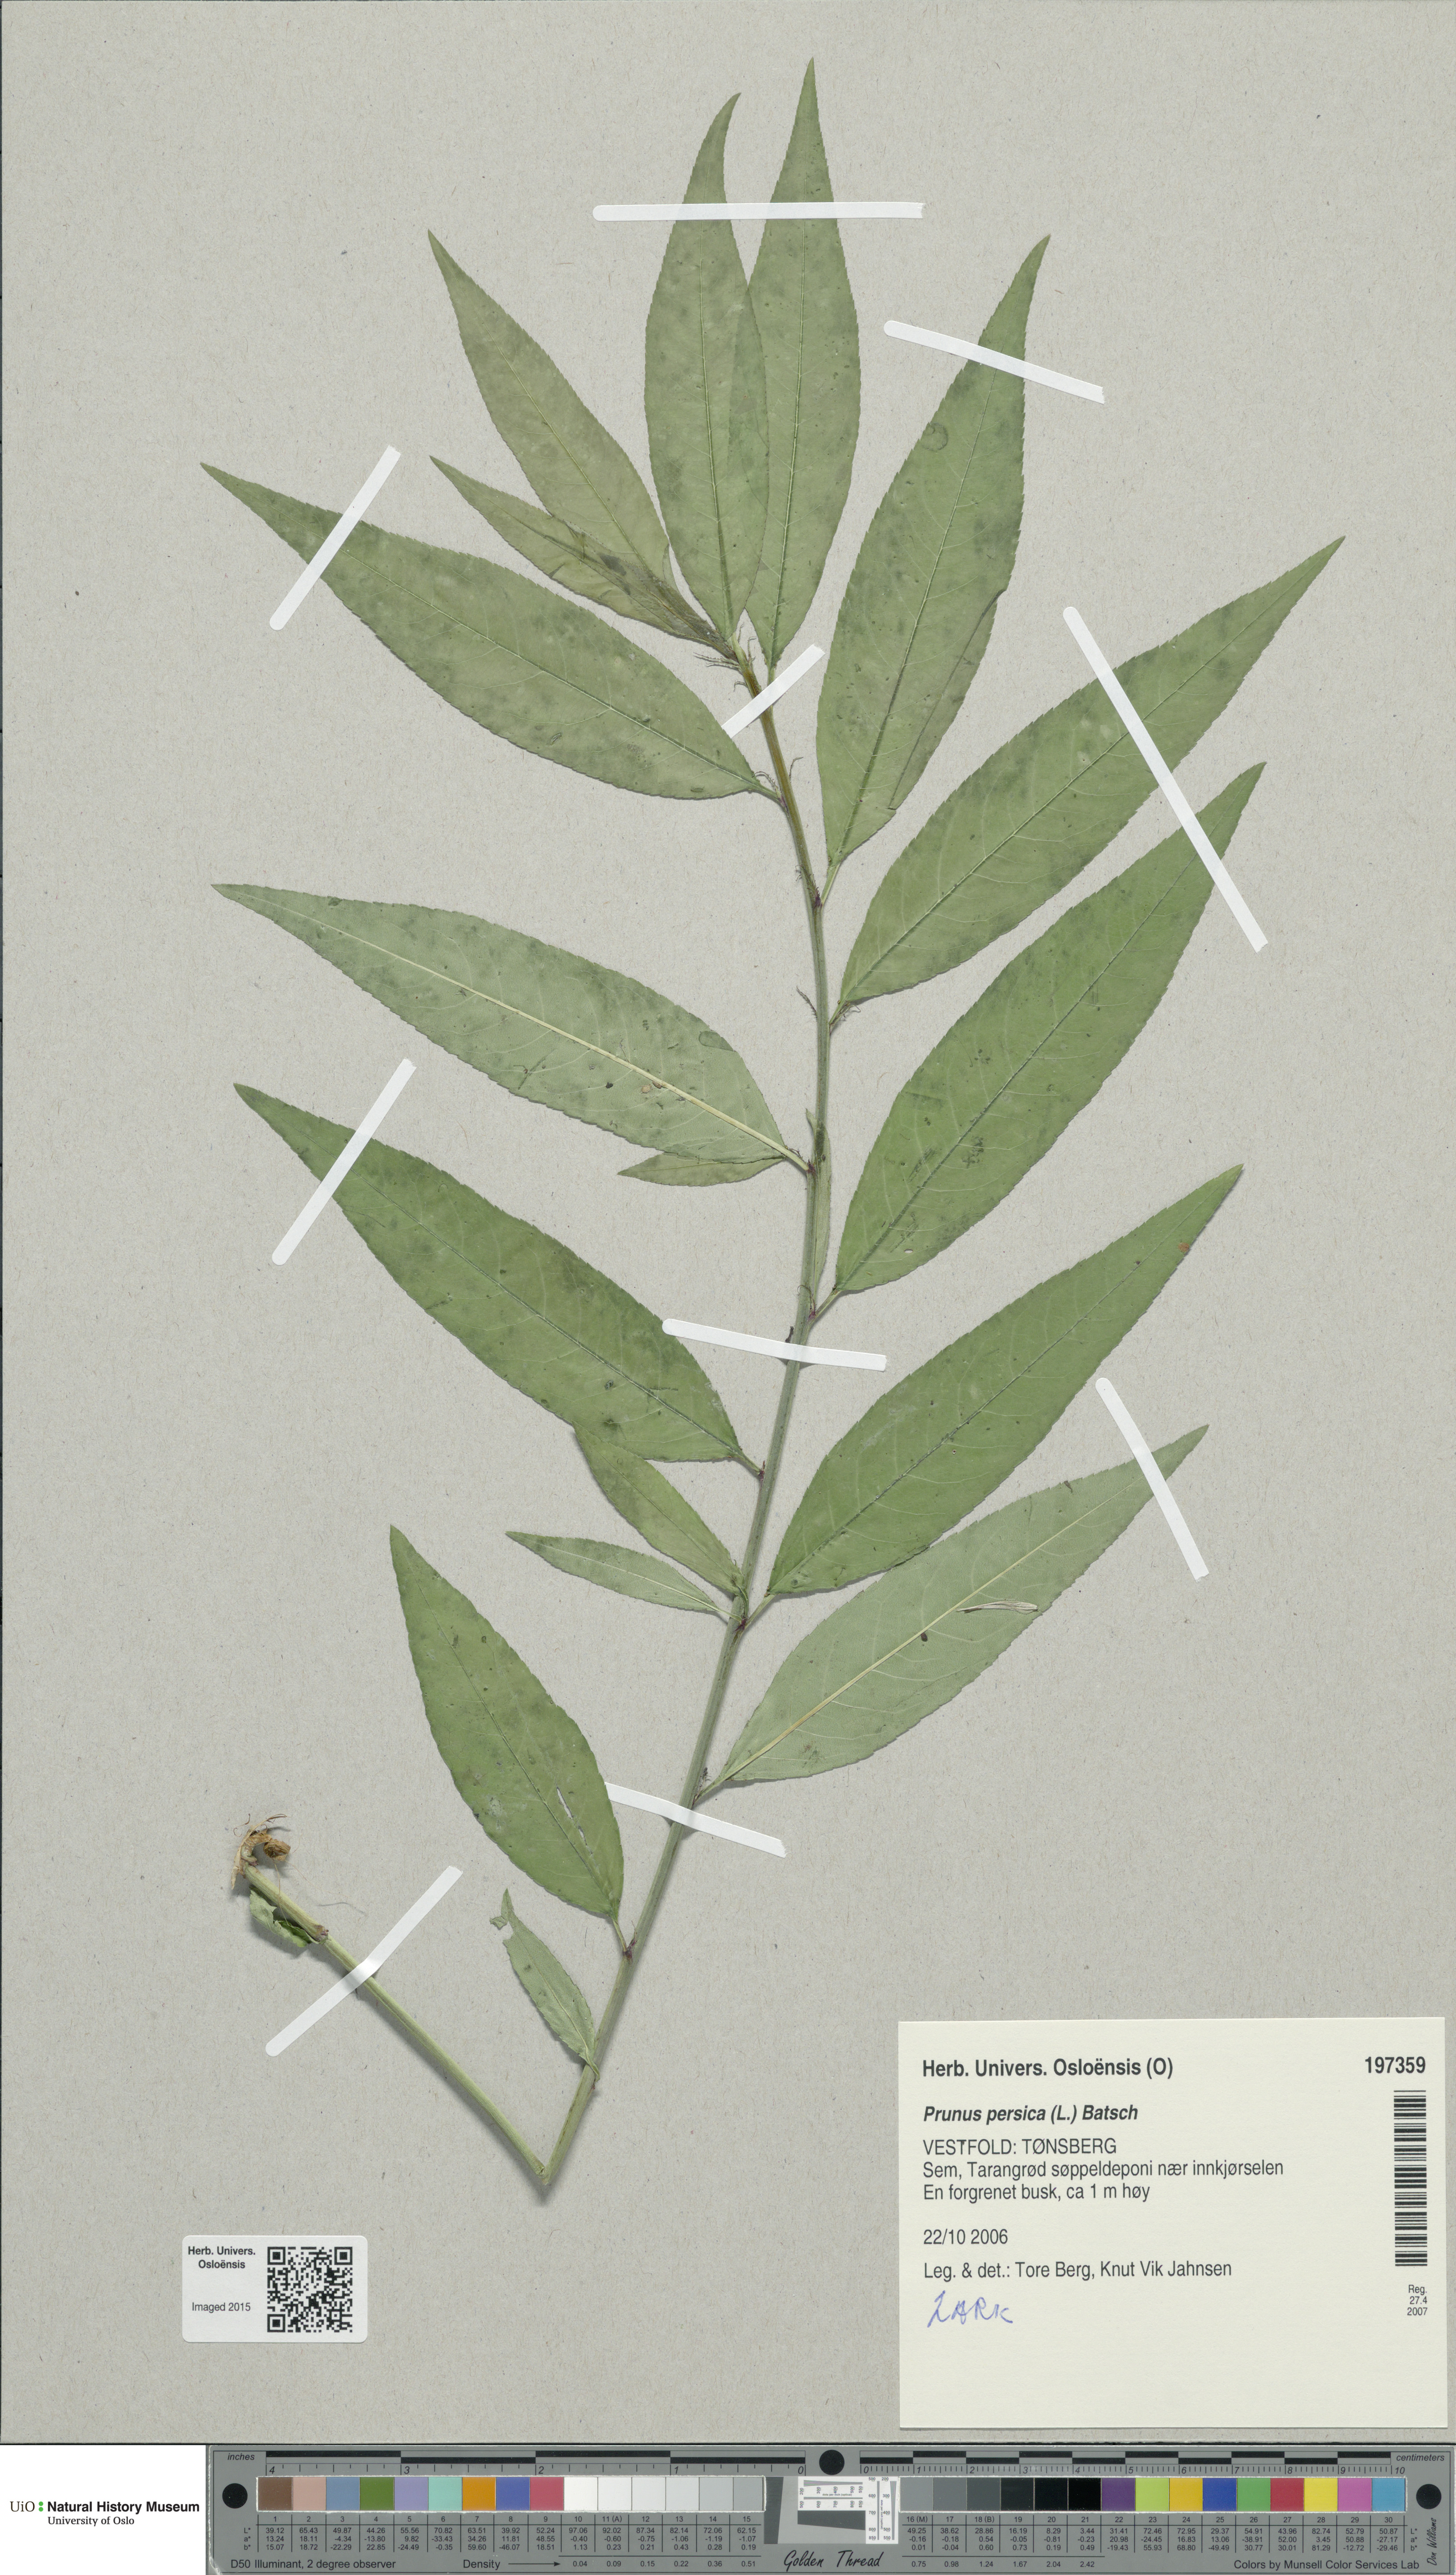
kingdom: Plantae
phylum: Tracheophyta
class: Magnoliopsida
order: Rosales
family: Rosaceae
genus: Prunus
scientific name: Prunus persica
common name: Peach
